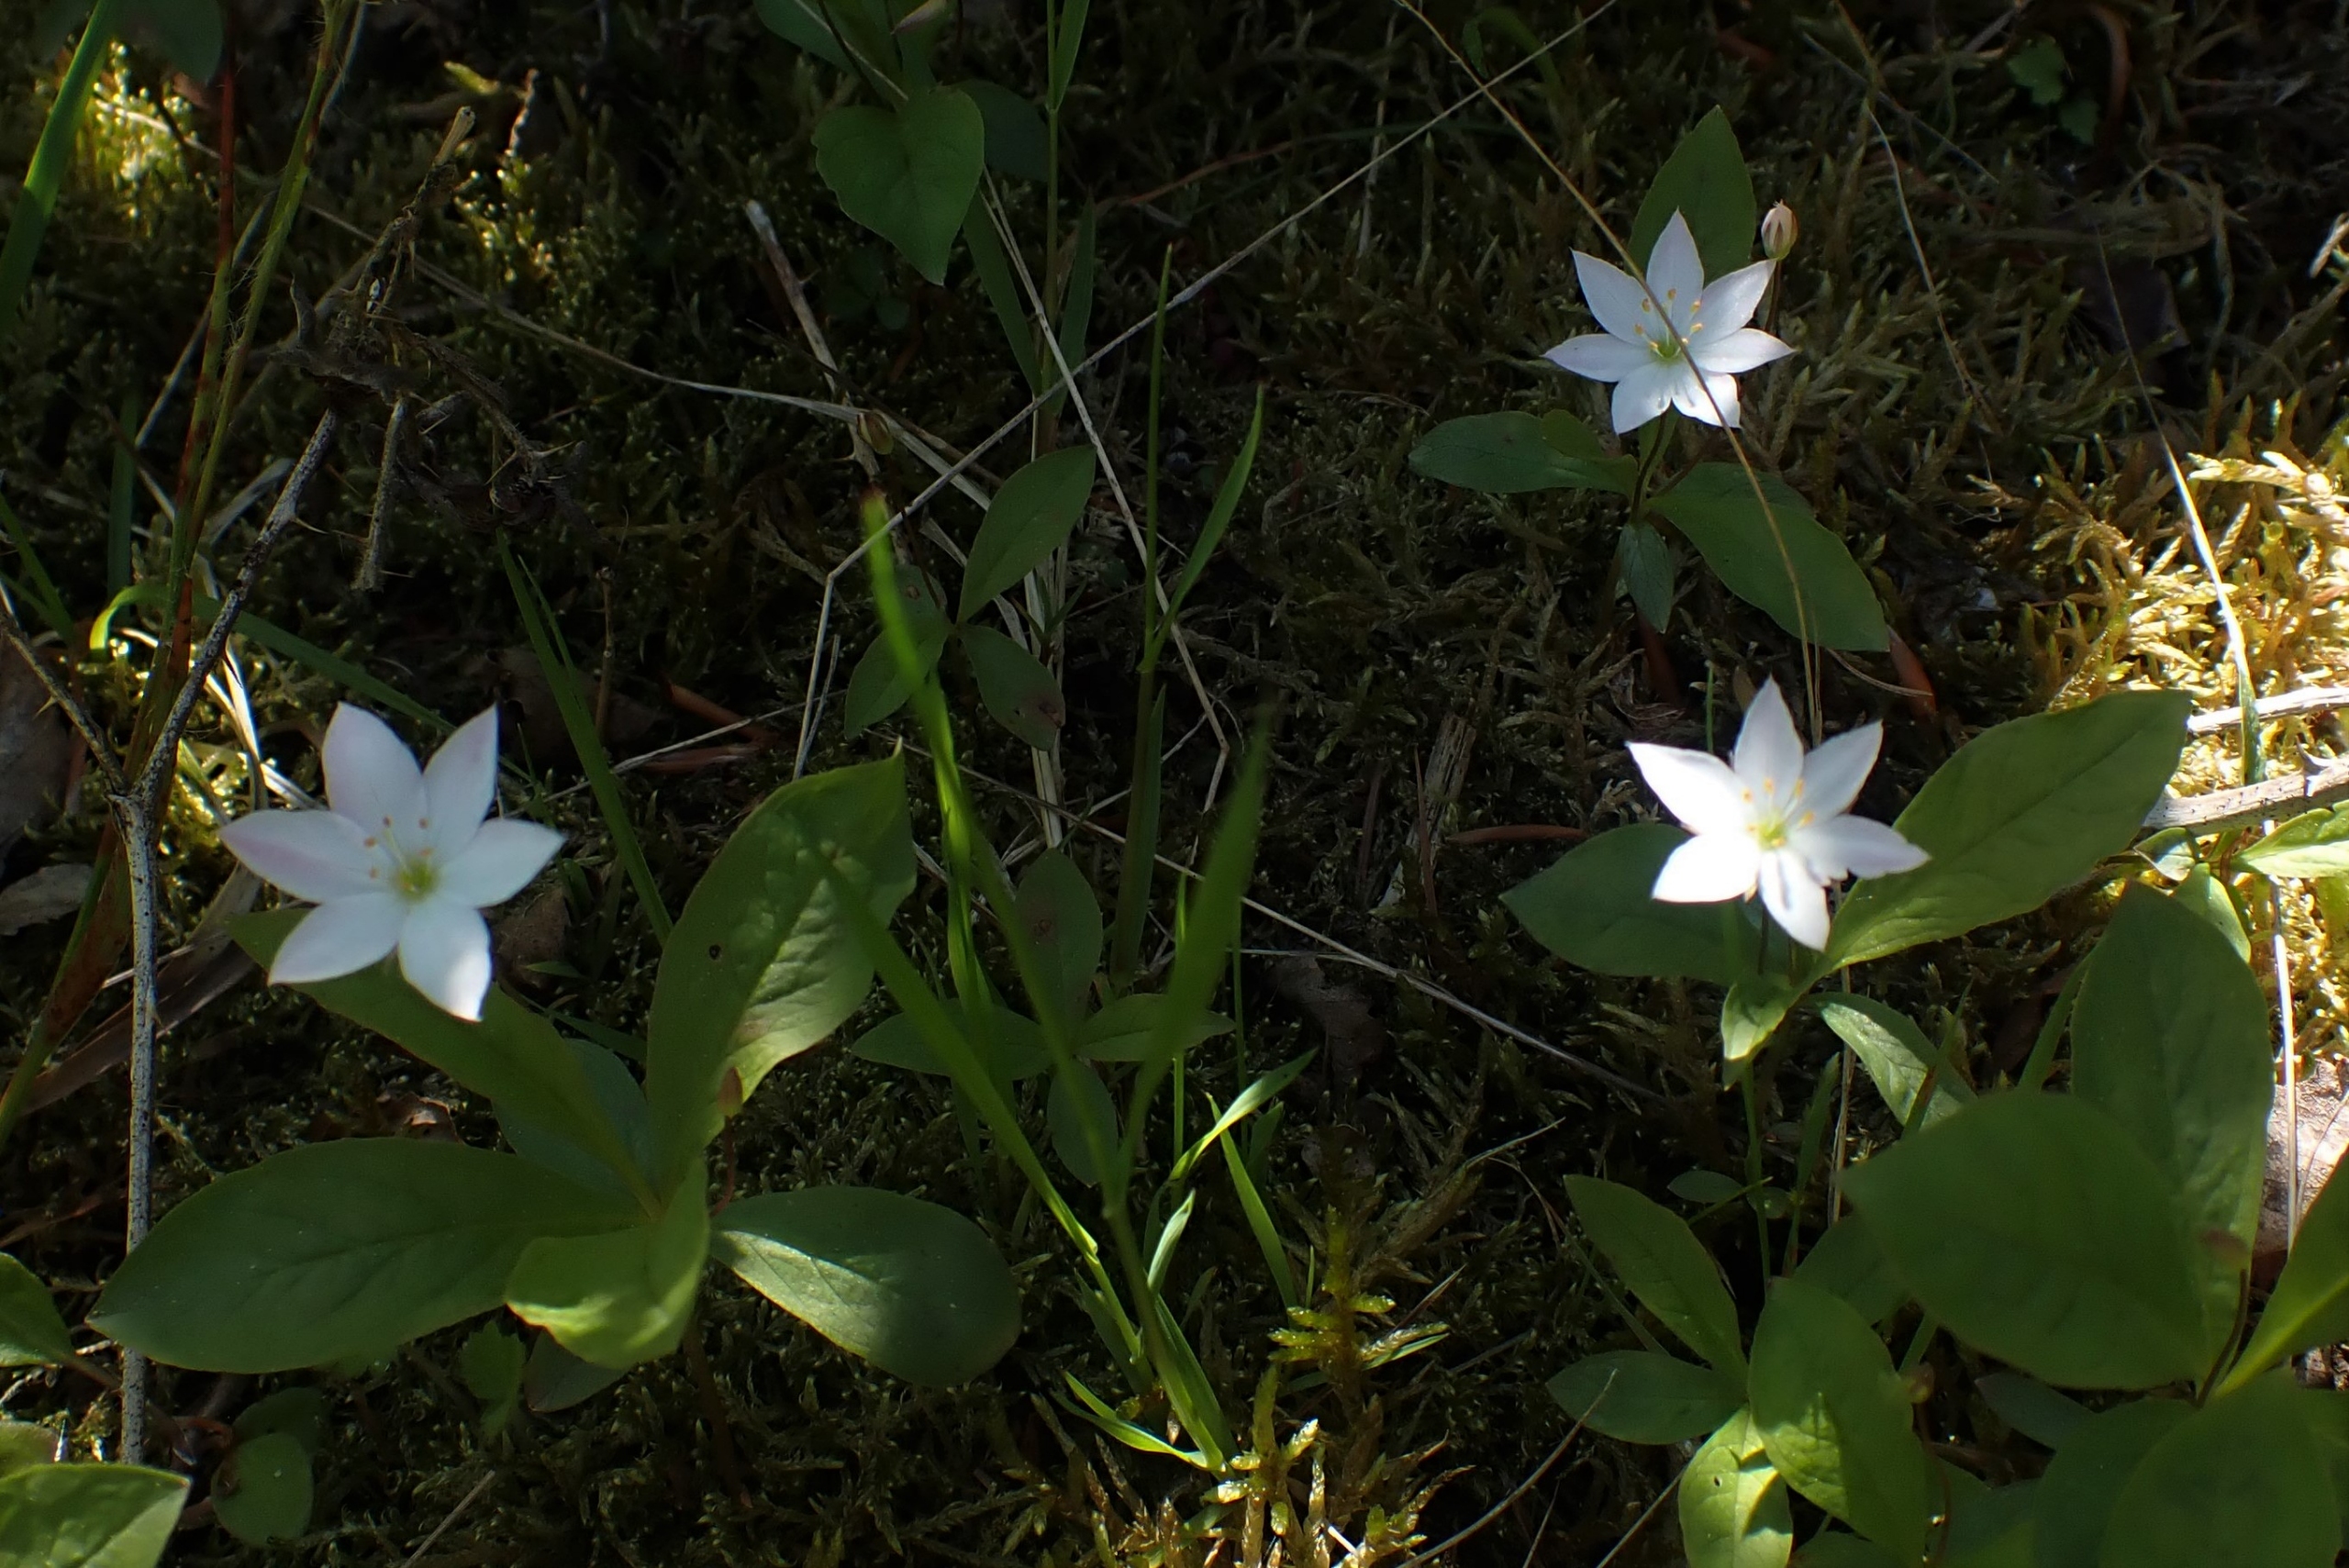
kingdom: Plantae
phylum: Tracheophyta
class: Magnoliopsida
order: Ericales
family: Primulaceae
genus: Lysimachia
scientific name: Lysimachia europaea
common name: Skovstjerne
